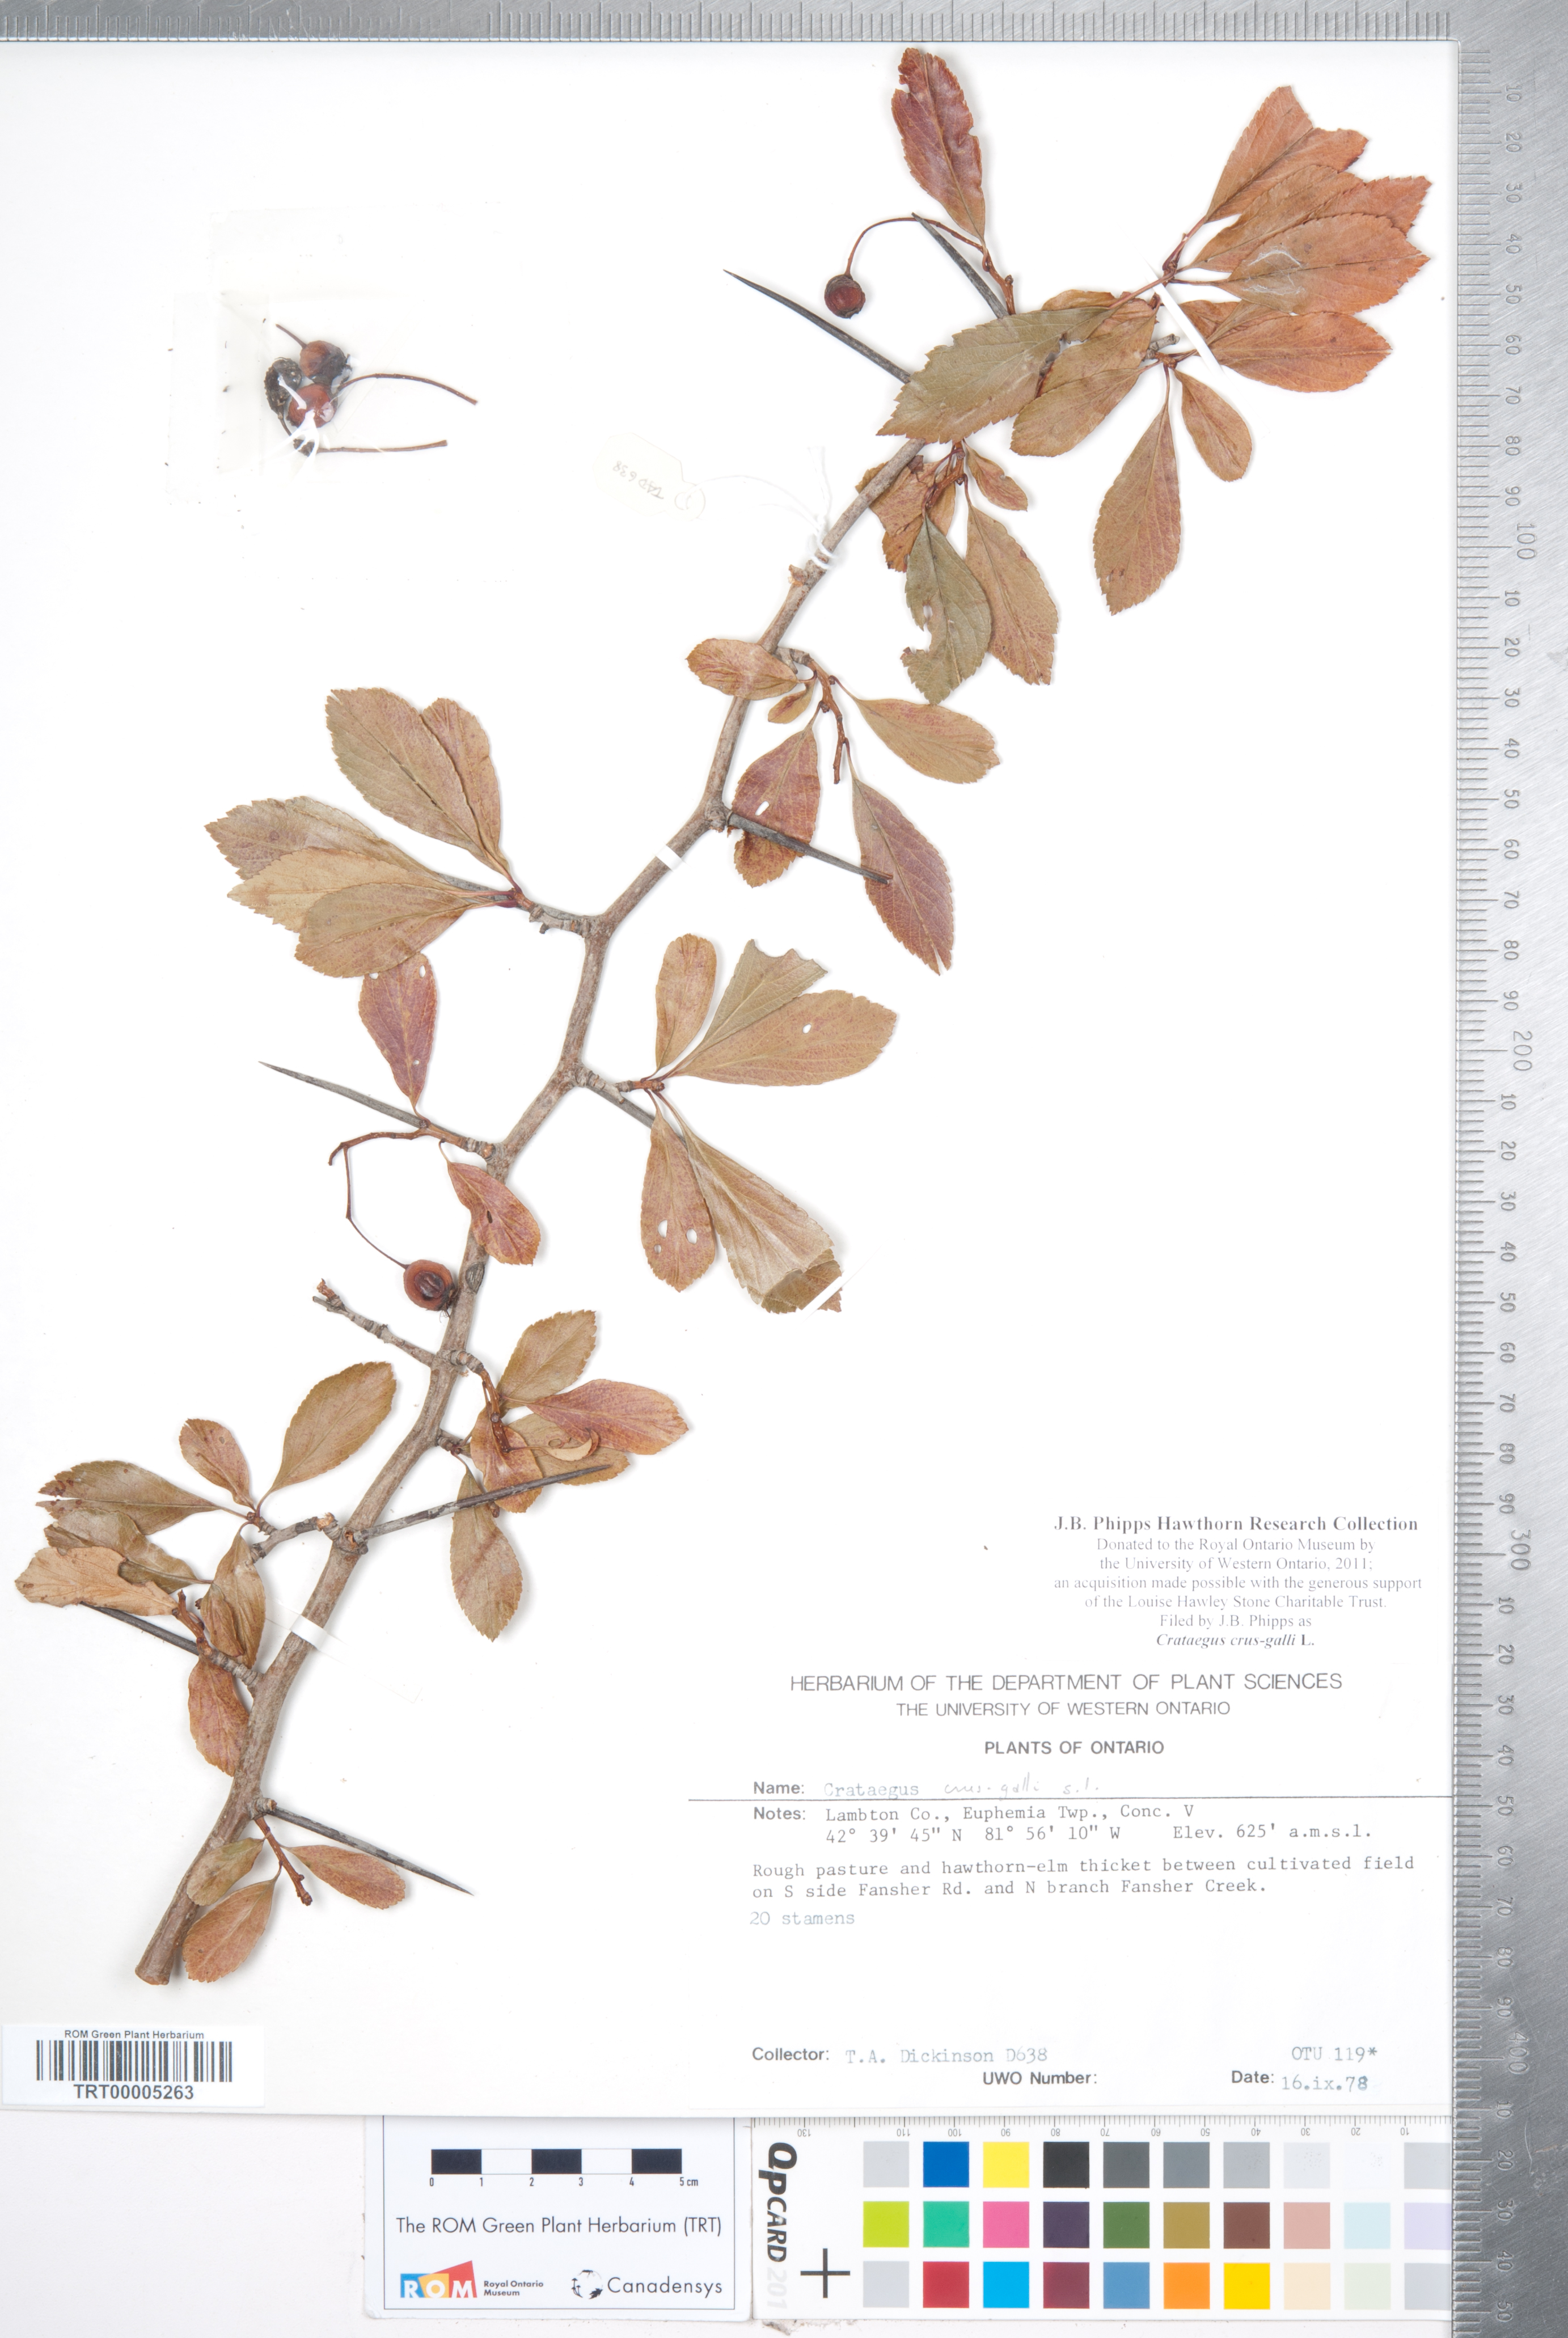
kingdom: Plantae
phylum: Tracheophyta
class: Magnoliopsida
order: Rosales
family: Rosaceae
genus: Crataegus
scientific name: Crataegus crus-galli
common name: Cockspurthorn
